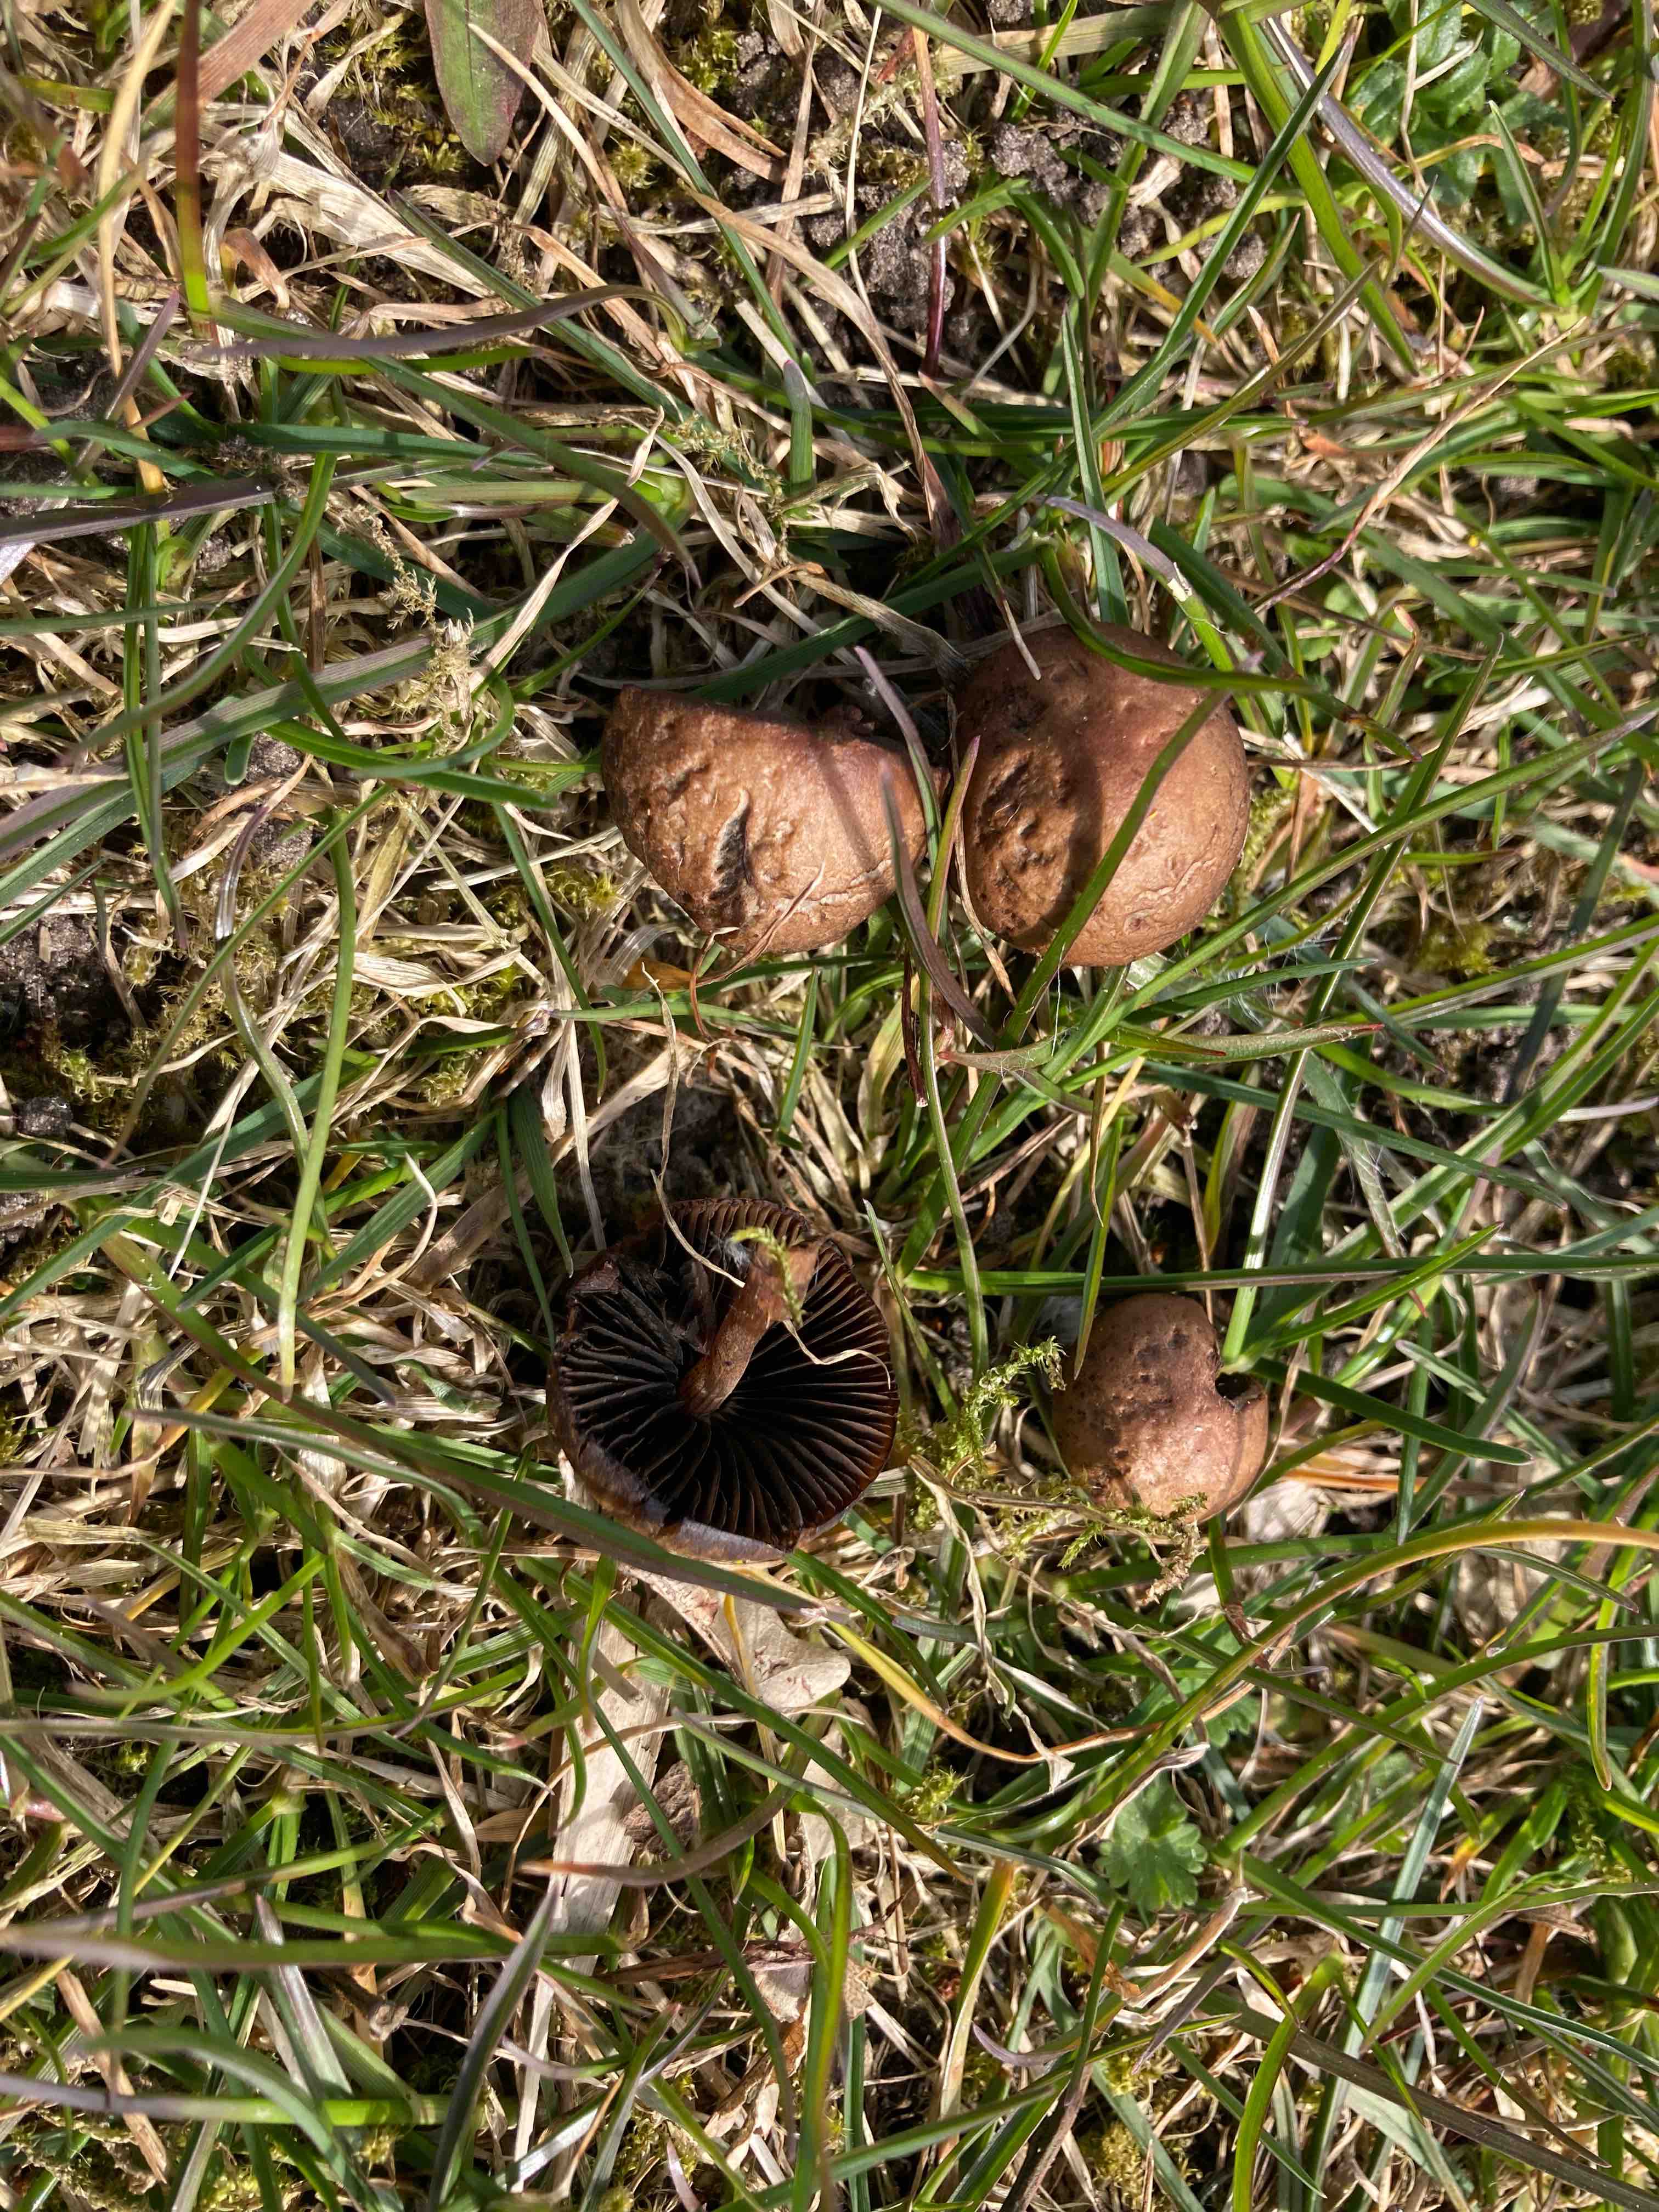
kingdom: Fungi
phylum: Basidiomycota
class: Agaricomycetes
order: Agaricales
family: Bolbitiaceae
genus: Panaeolus
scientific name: Panaeolus fimicola
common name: tidlig glanshat
